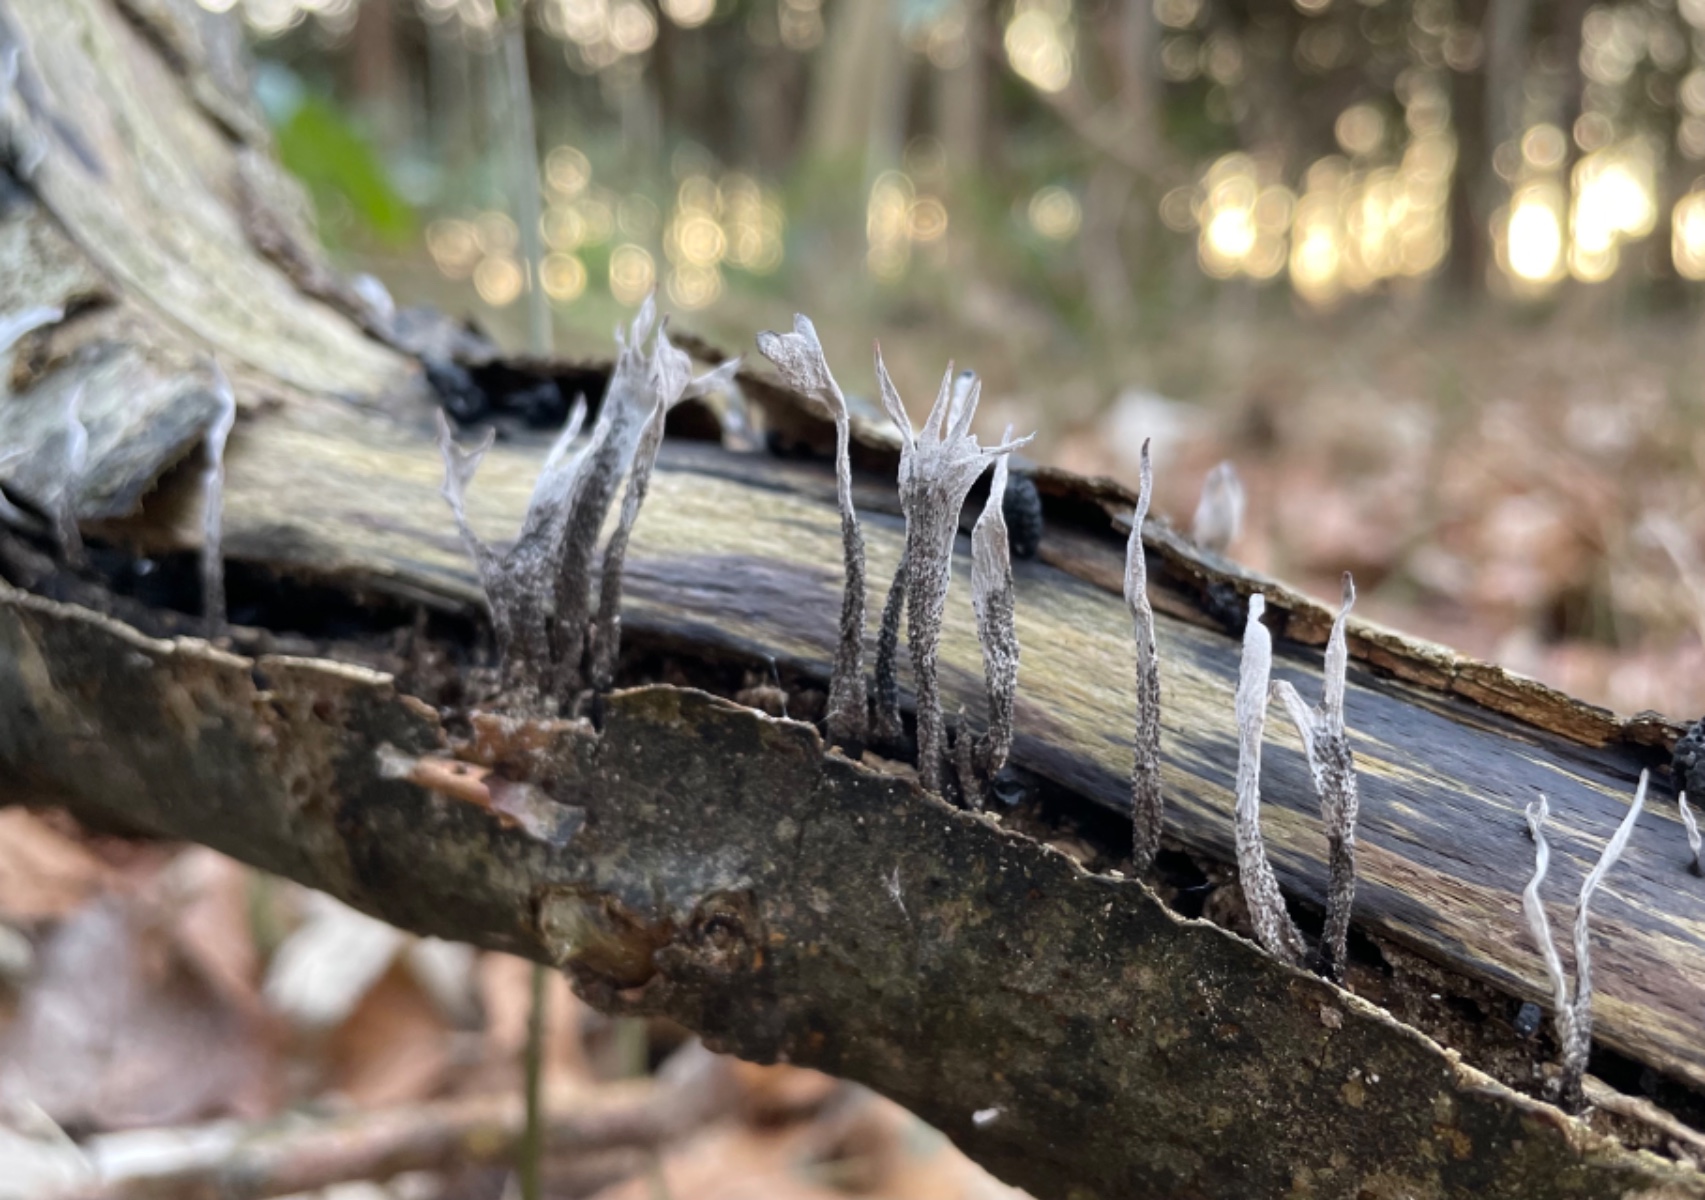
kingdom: Fungi
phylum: Ascomycota
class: Sordariomycetes
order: Xylariales
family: Xylariaceae
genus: Xylaria
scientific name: Xylaria hypoxylon
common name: grenet stødsvamp
